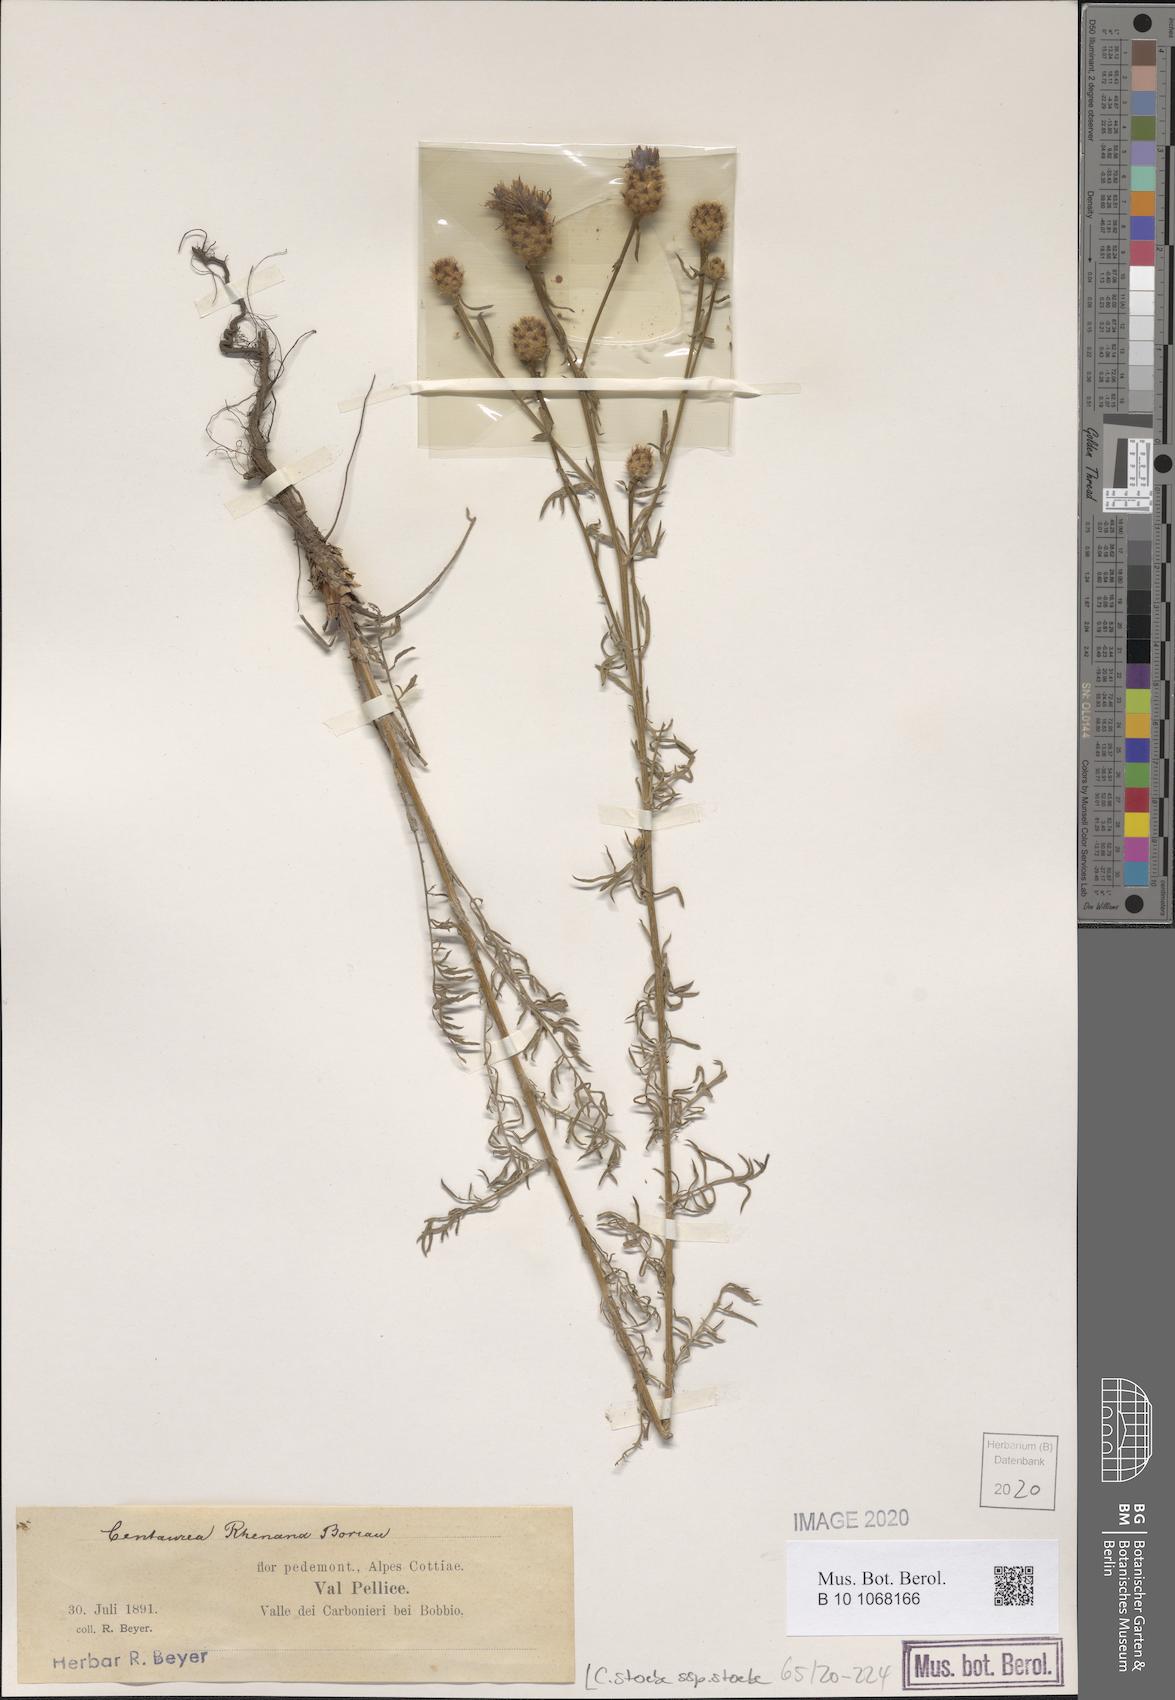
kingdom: Plantae
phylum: Tracheophyta
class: Magnoliopsida
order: Asterales
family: Asteraceae
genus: Centaurea
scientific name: Centaurea stoebe
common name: Spotted knapweed
